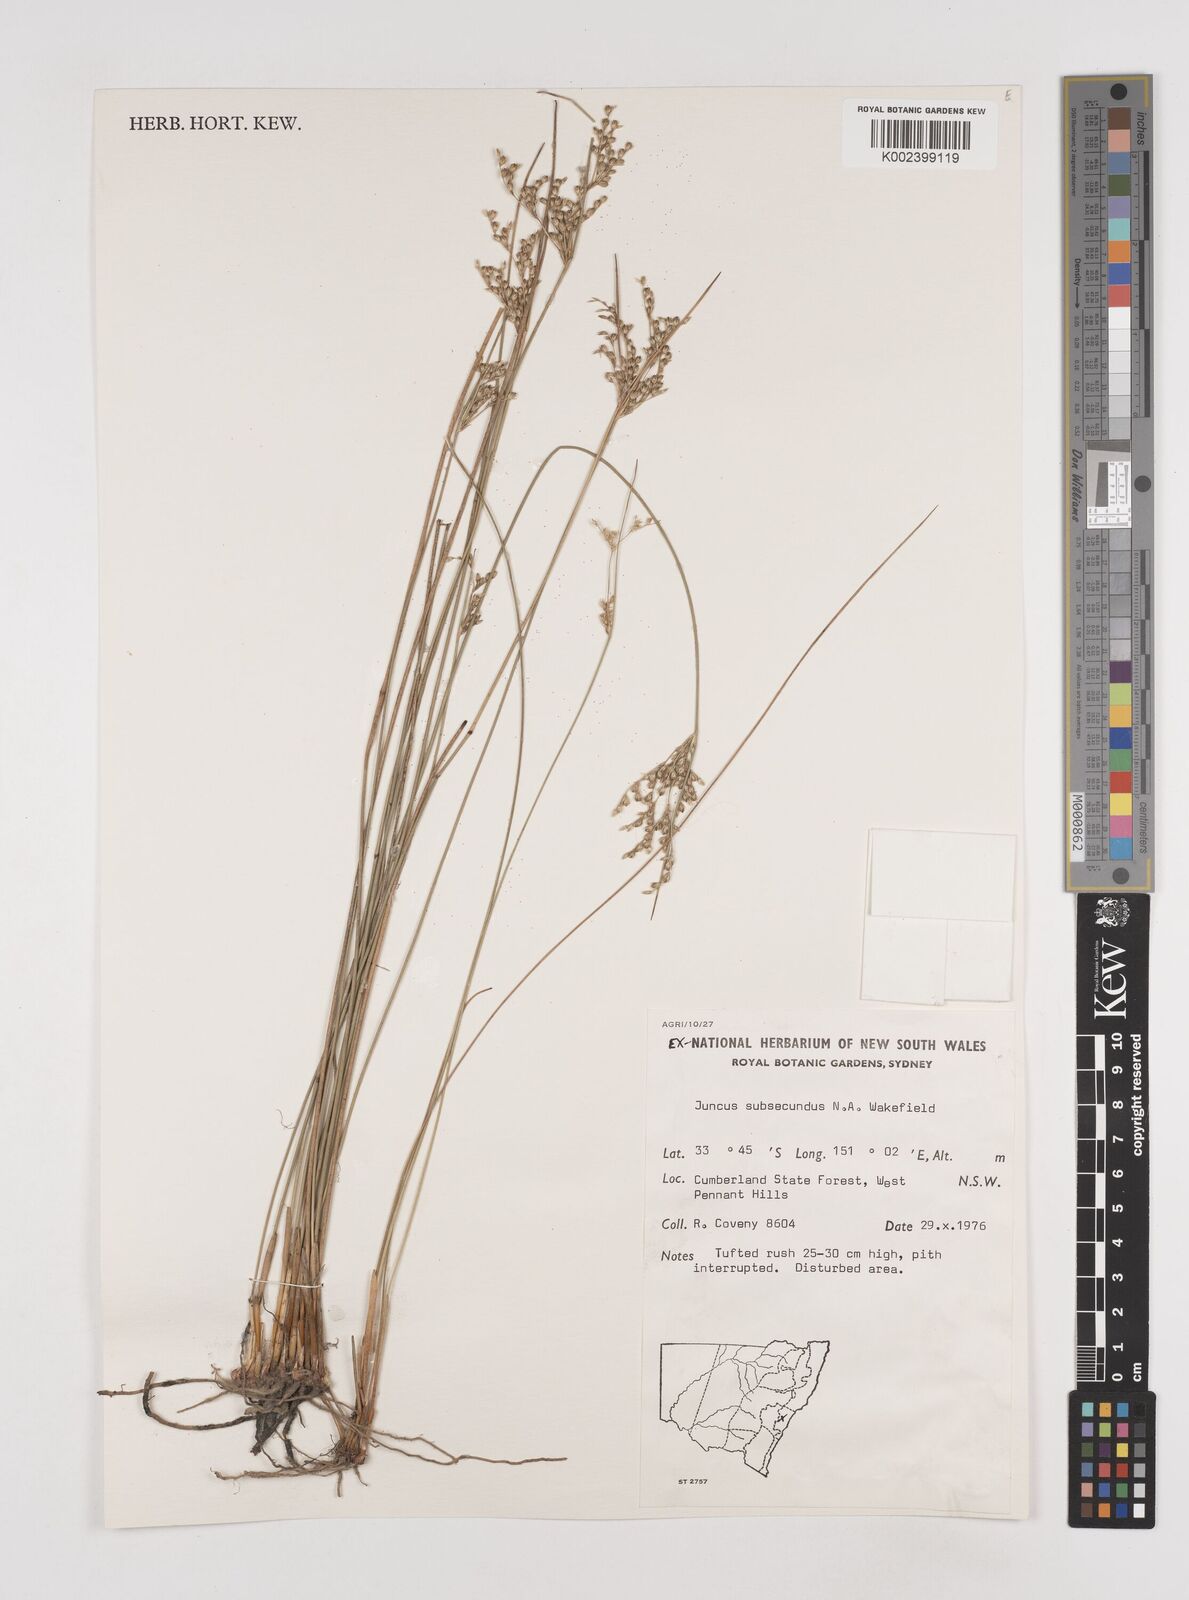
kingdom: Plantae
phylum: Tracheophyta
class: Liliopsida
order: Poales
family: Juncaceae
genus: Juncus
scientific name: Juncus subsecundus
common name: Fingered rush
